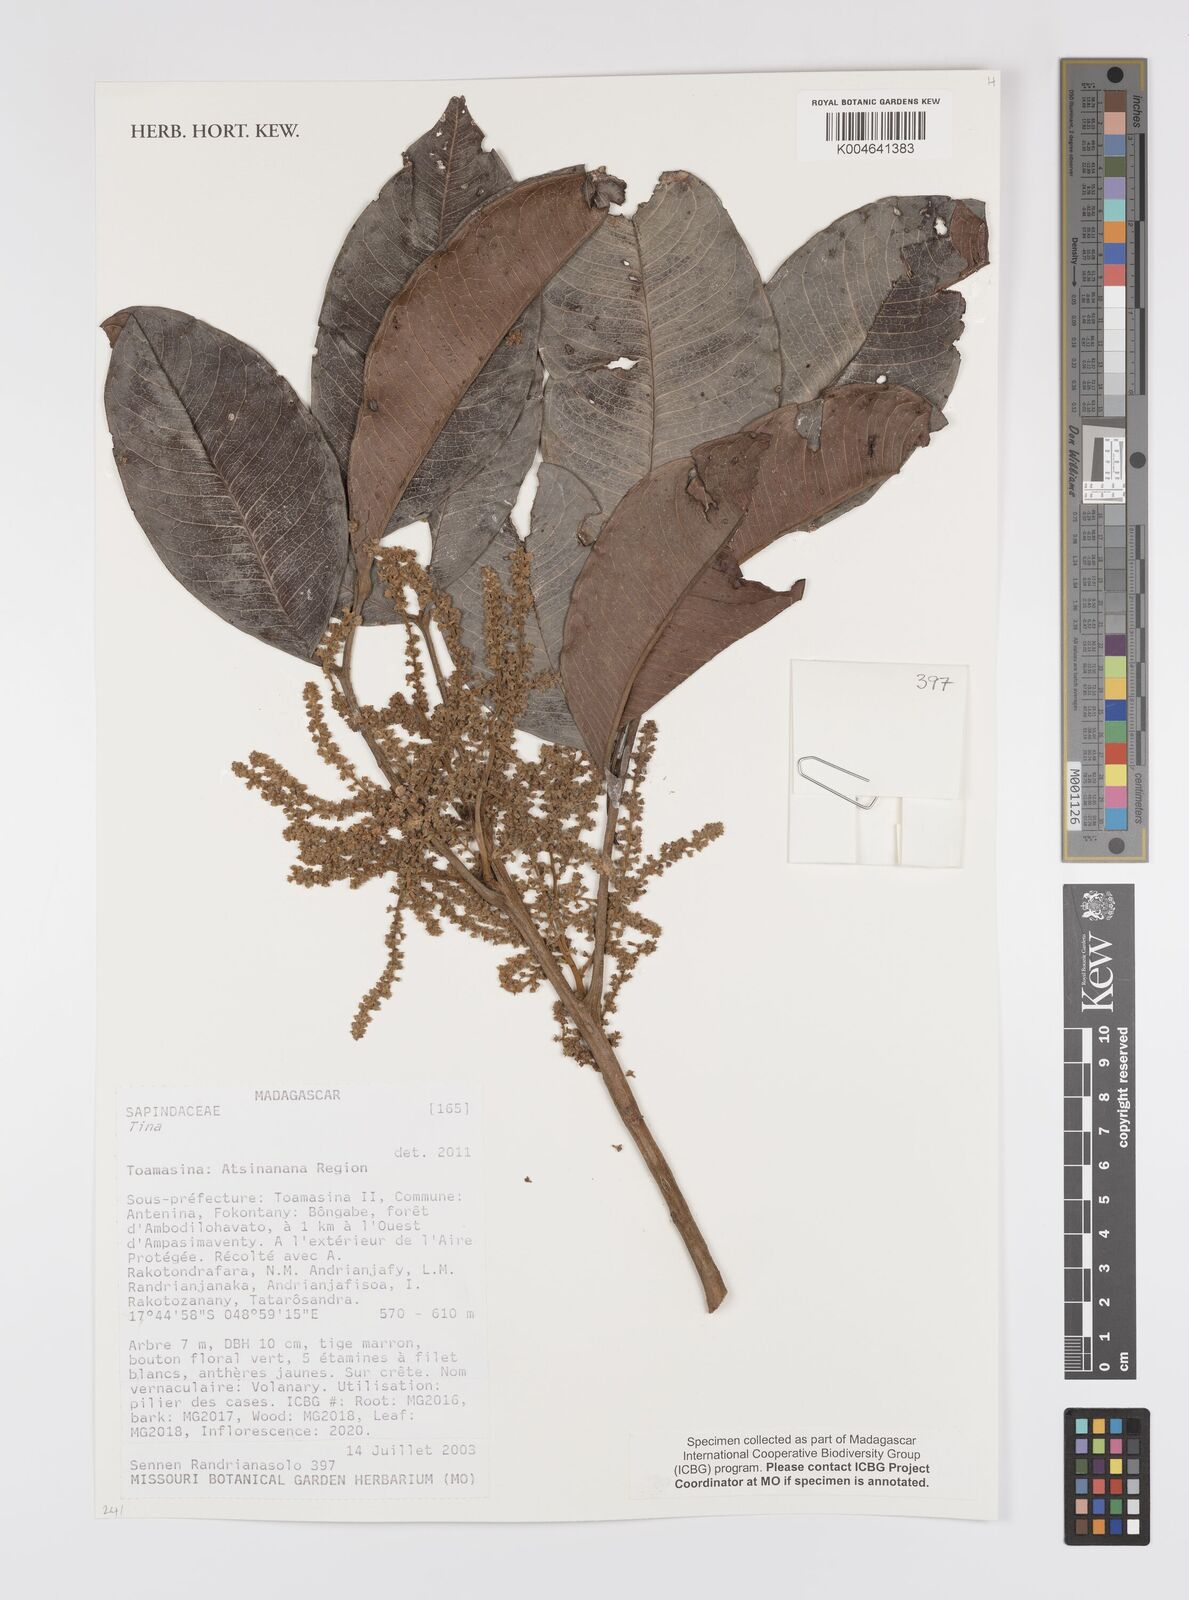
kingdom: Plantae
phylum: Tracheophyta
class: Magnoliopsida
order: Sapindales
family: Sapindaceae
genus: Tina
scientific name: Tina
